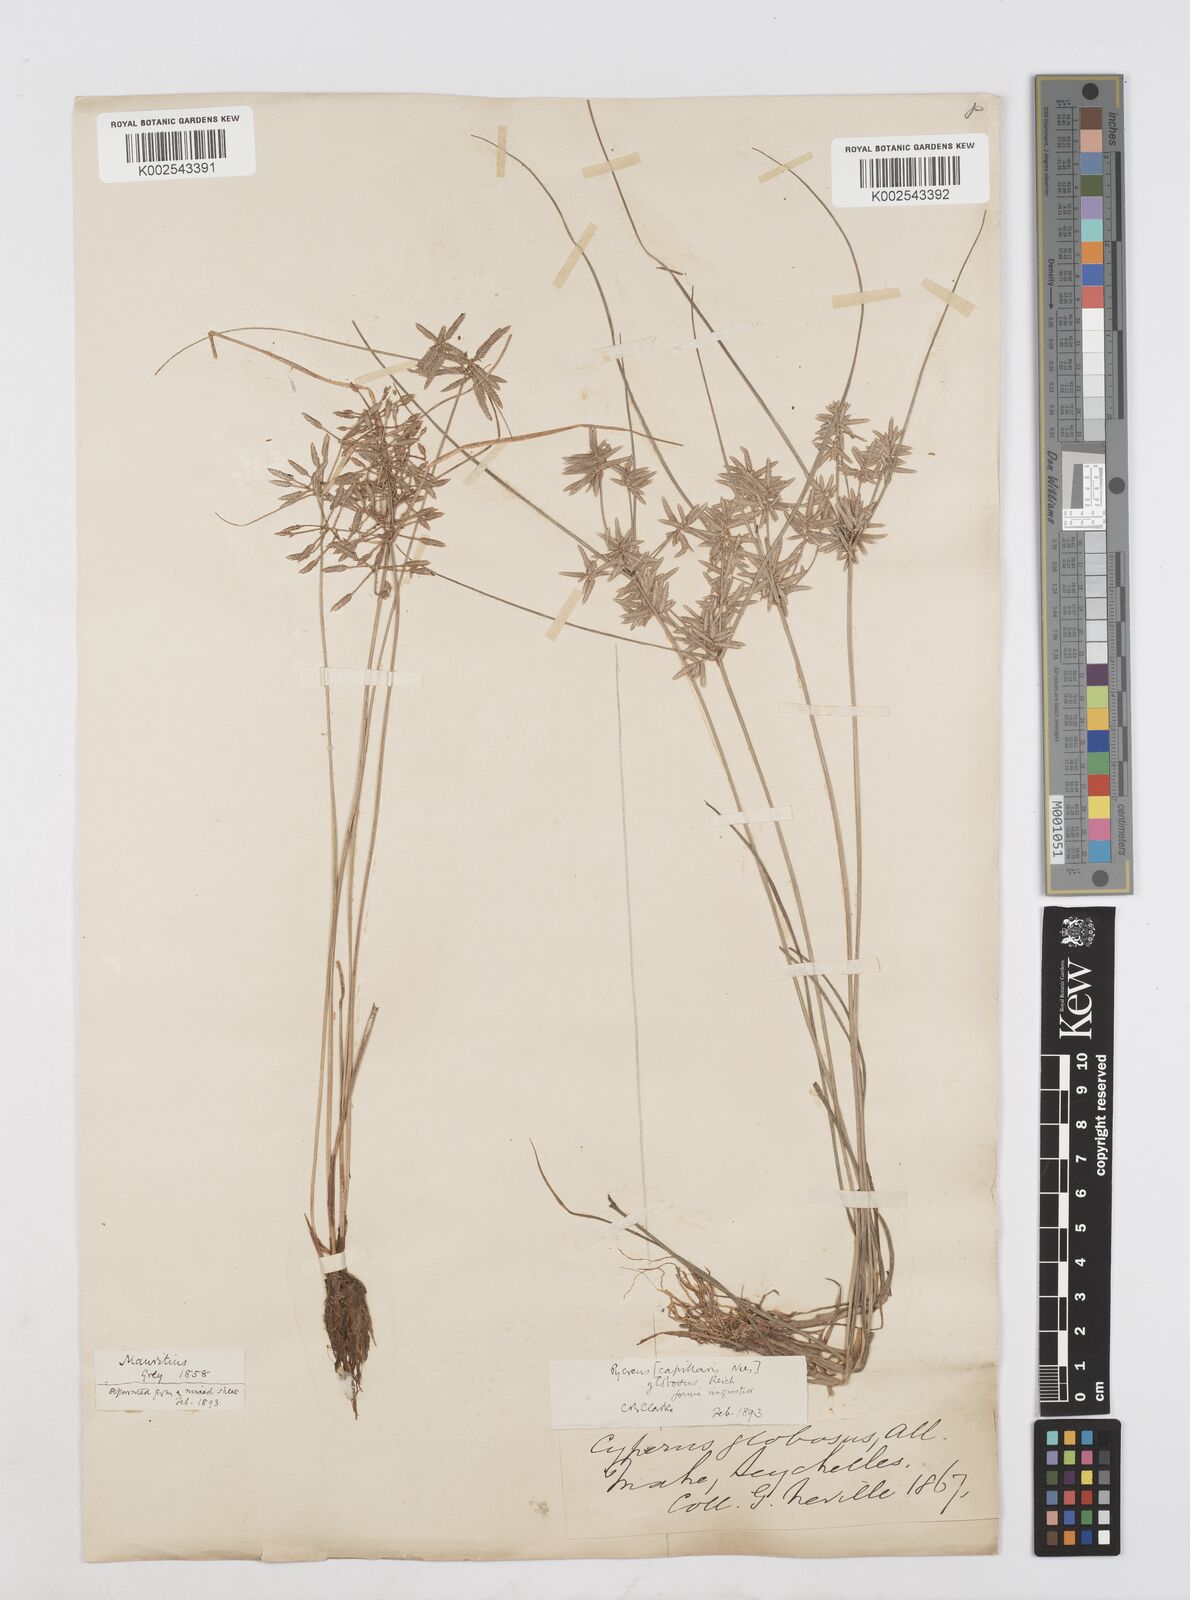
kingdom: Plantae
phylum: Tracheophyta
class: Liliopsida
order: Poales
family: Cyperaceae
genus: Cyperus
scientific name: Cyperus flavidus
